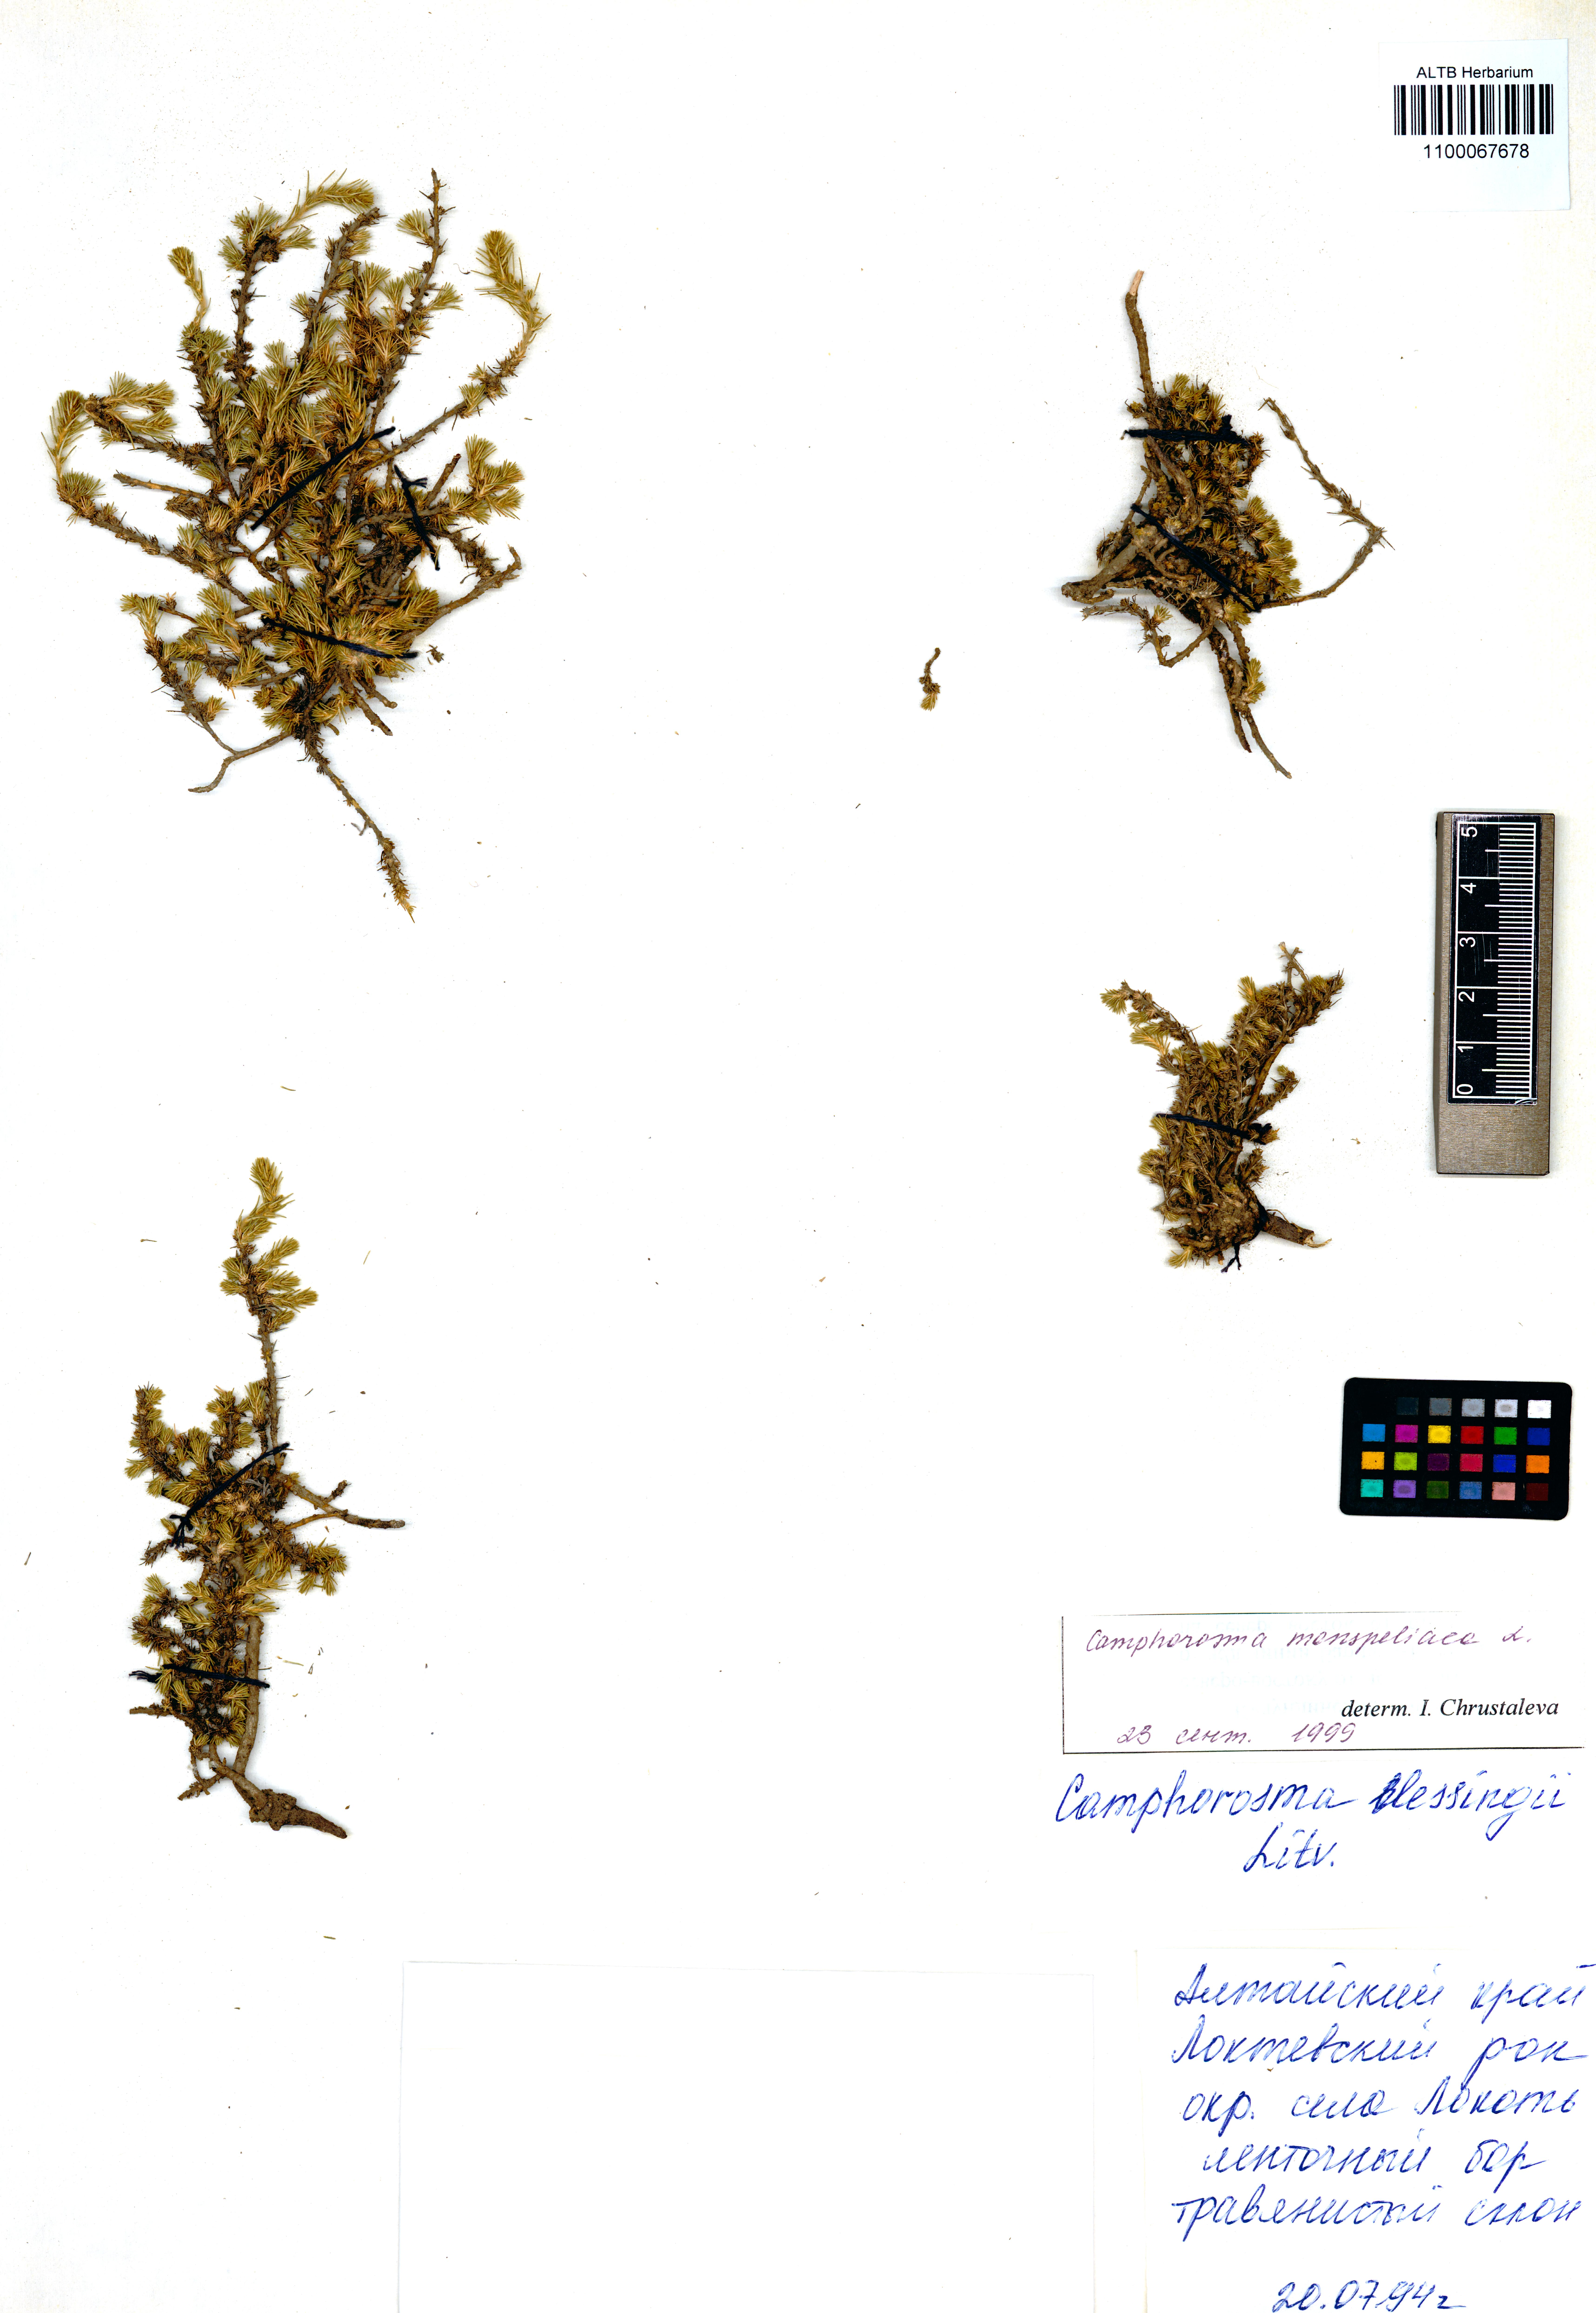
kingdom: Plantae
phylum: Tracheophyta
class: Magnoliopsida
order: Caryophyllales
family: Amaranthaceae
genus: Camphorosma
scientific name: Camphorosma monspeliaca
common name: Camphorfume
